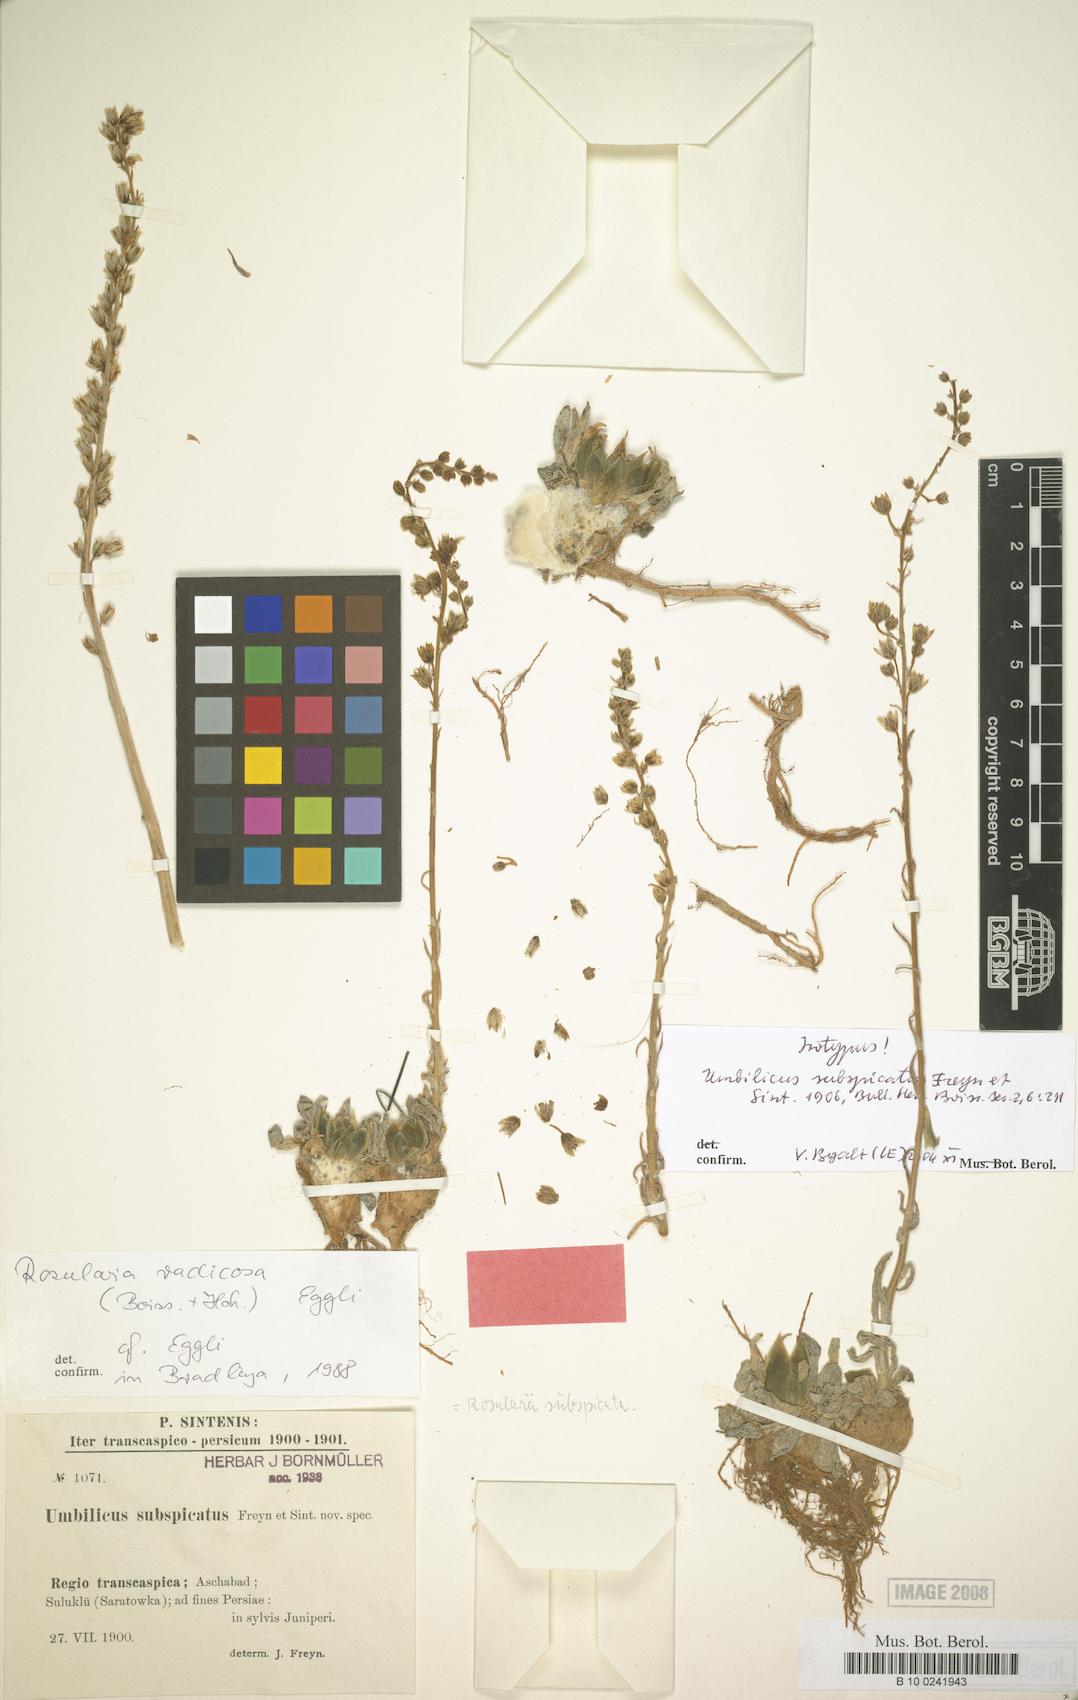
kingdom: Plantae
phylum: Tracheophyta
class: Magnoliopsida
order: Saxifragales
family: Crassulaceae
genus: Rosularia
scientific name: Rosularia radicosa
